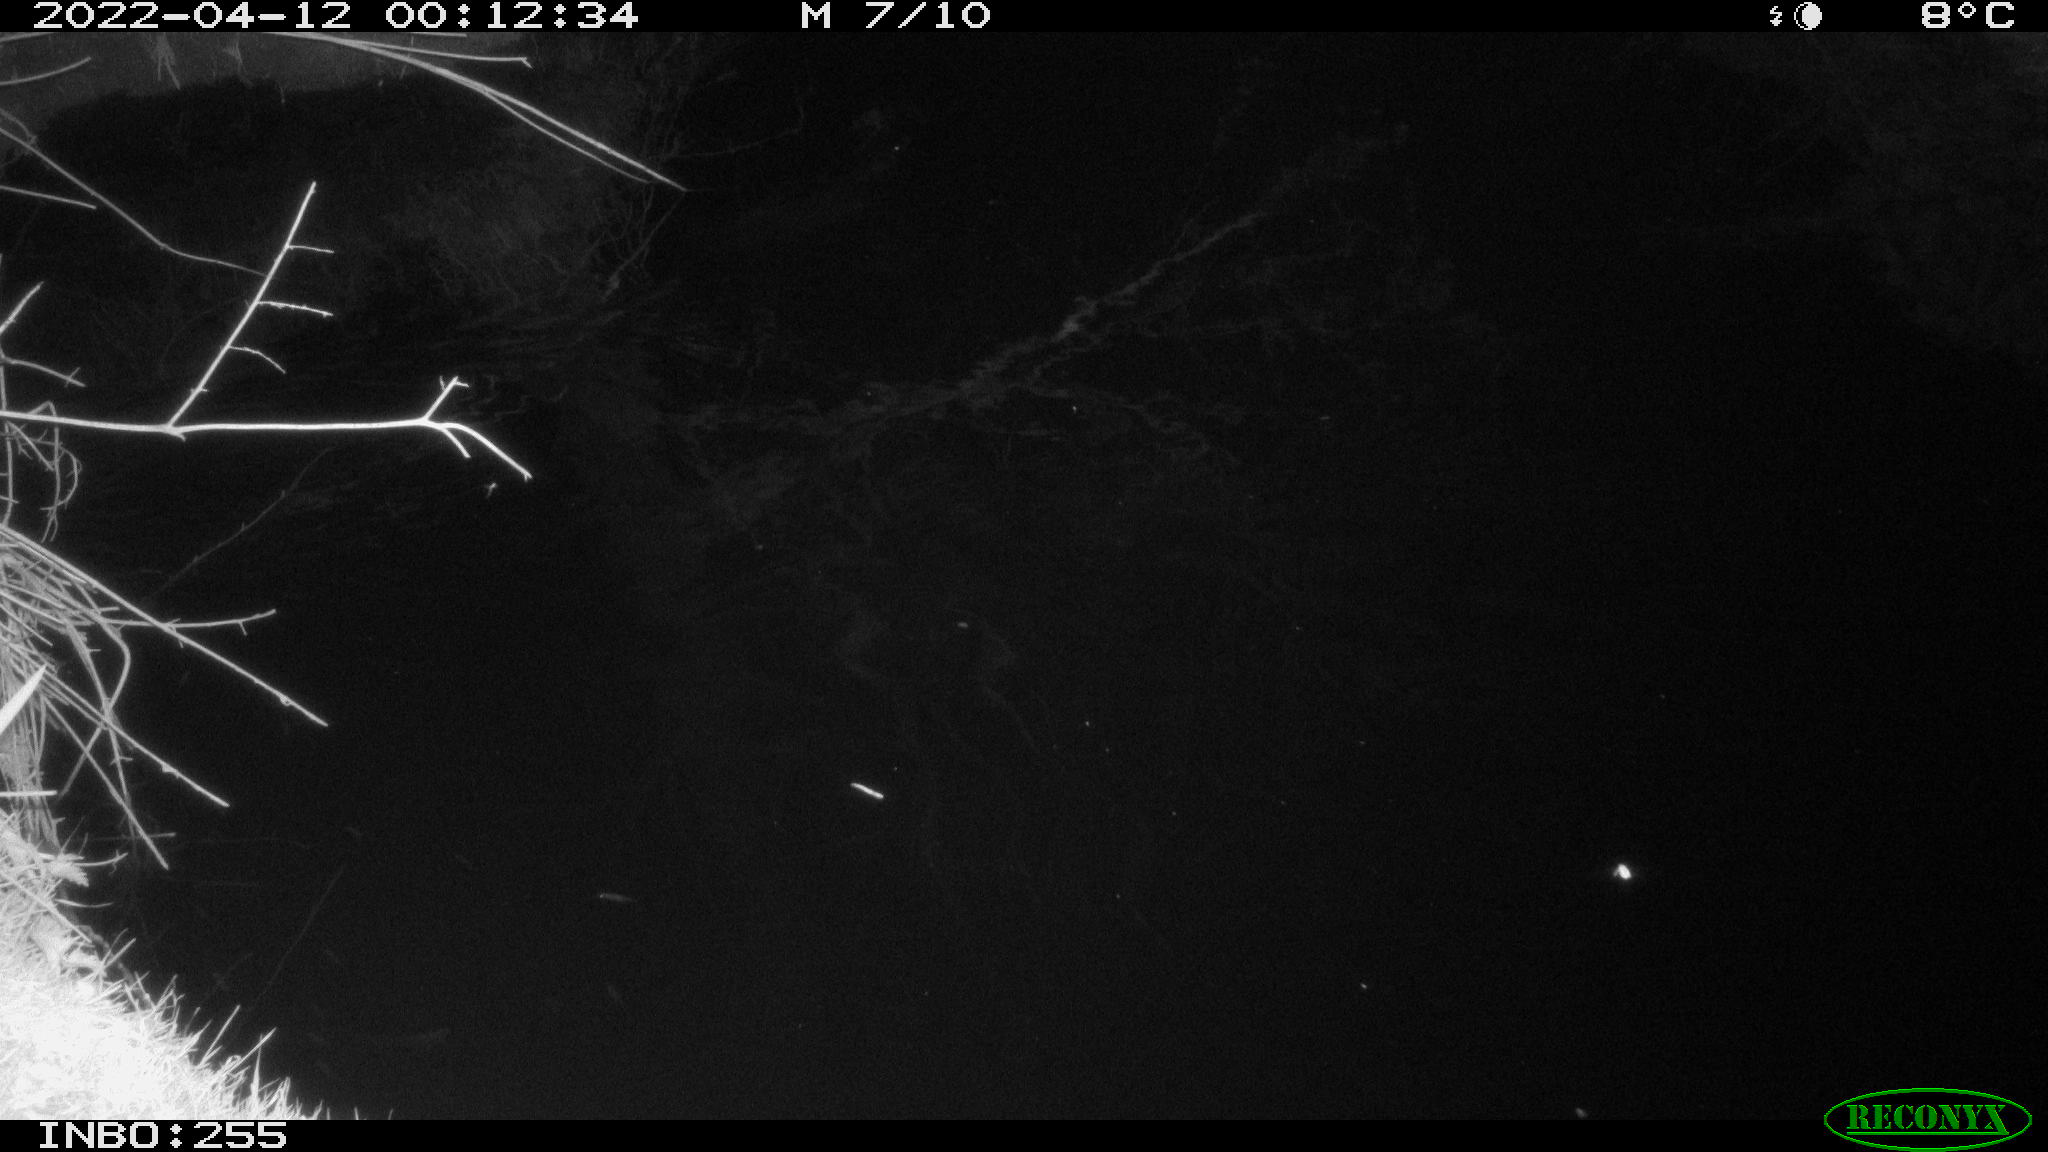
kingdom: Animalia
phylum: Chordata
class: Mammalia
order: Rodentia
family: Muridae
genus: Rattus
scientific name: Rattus norvegicus
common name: Brown rat
